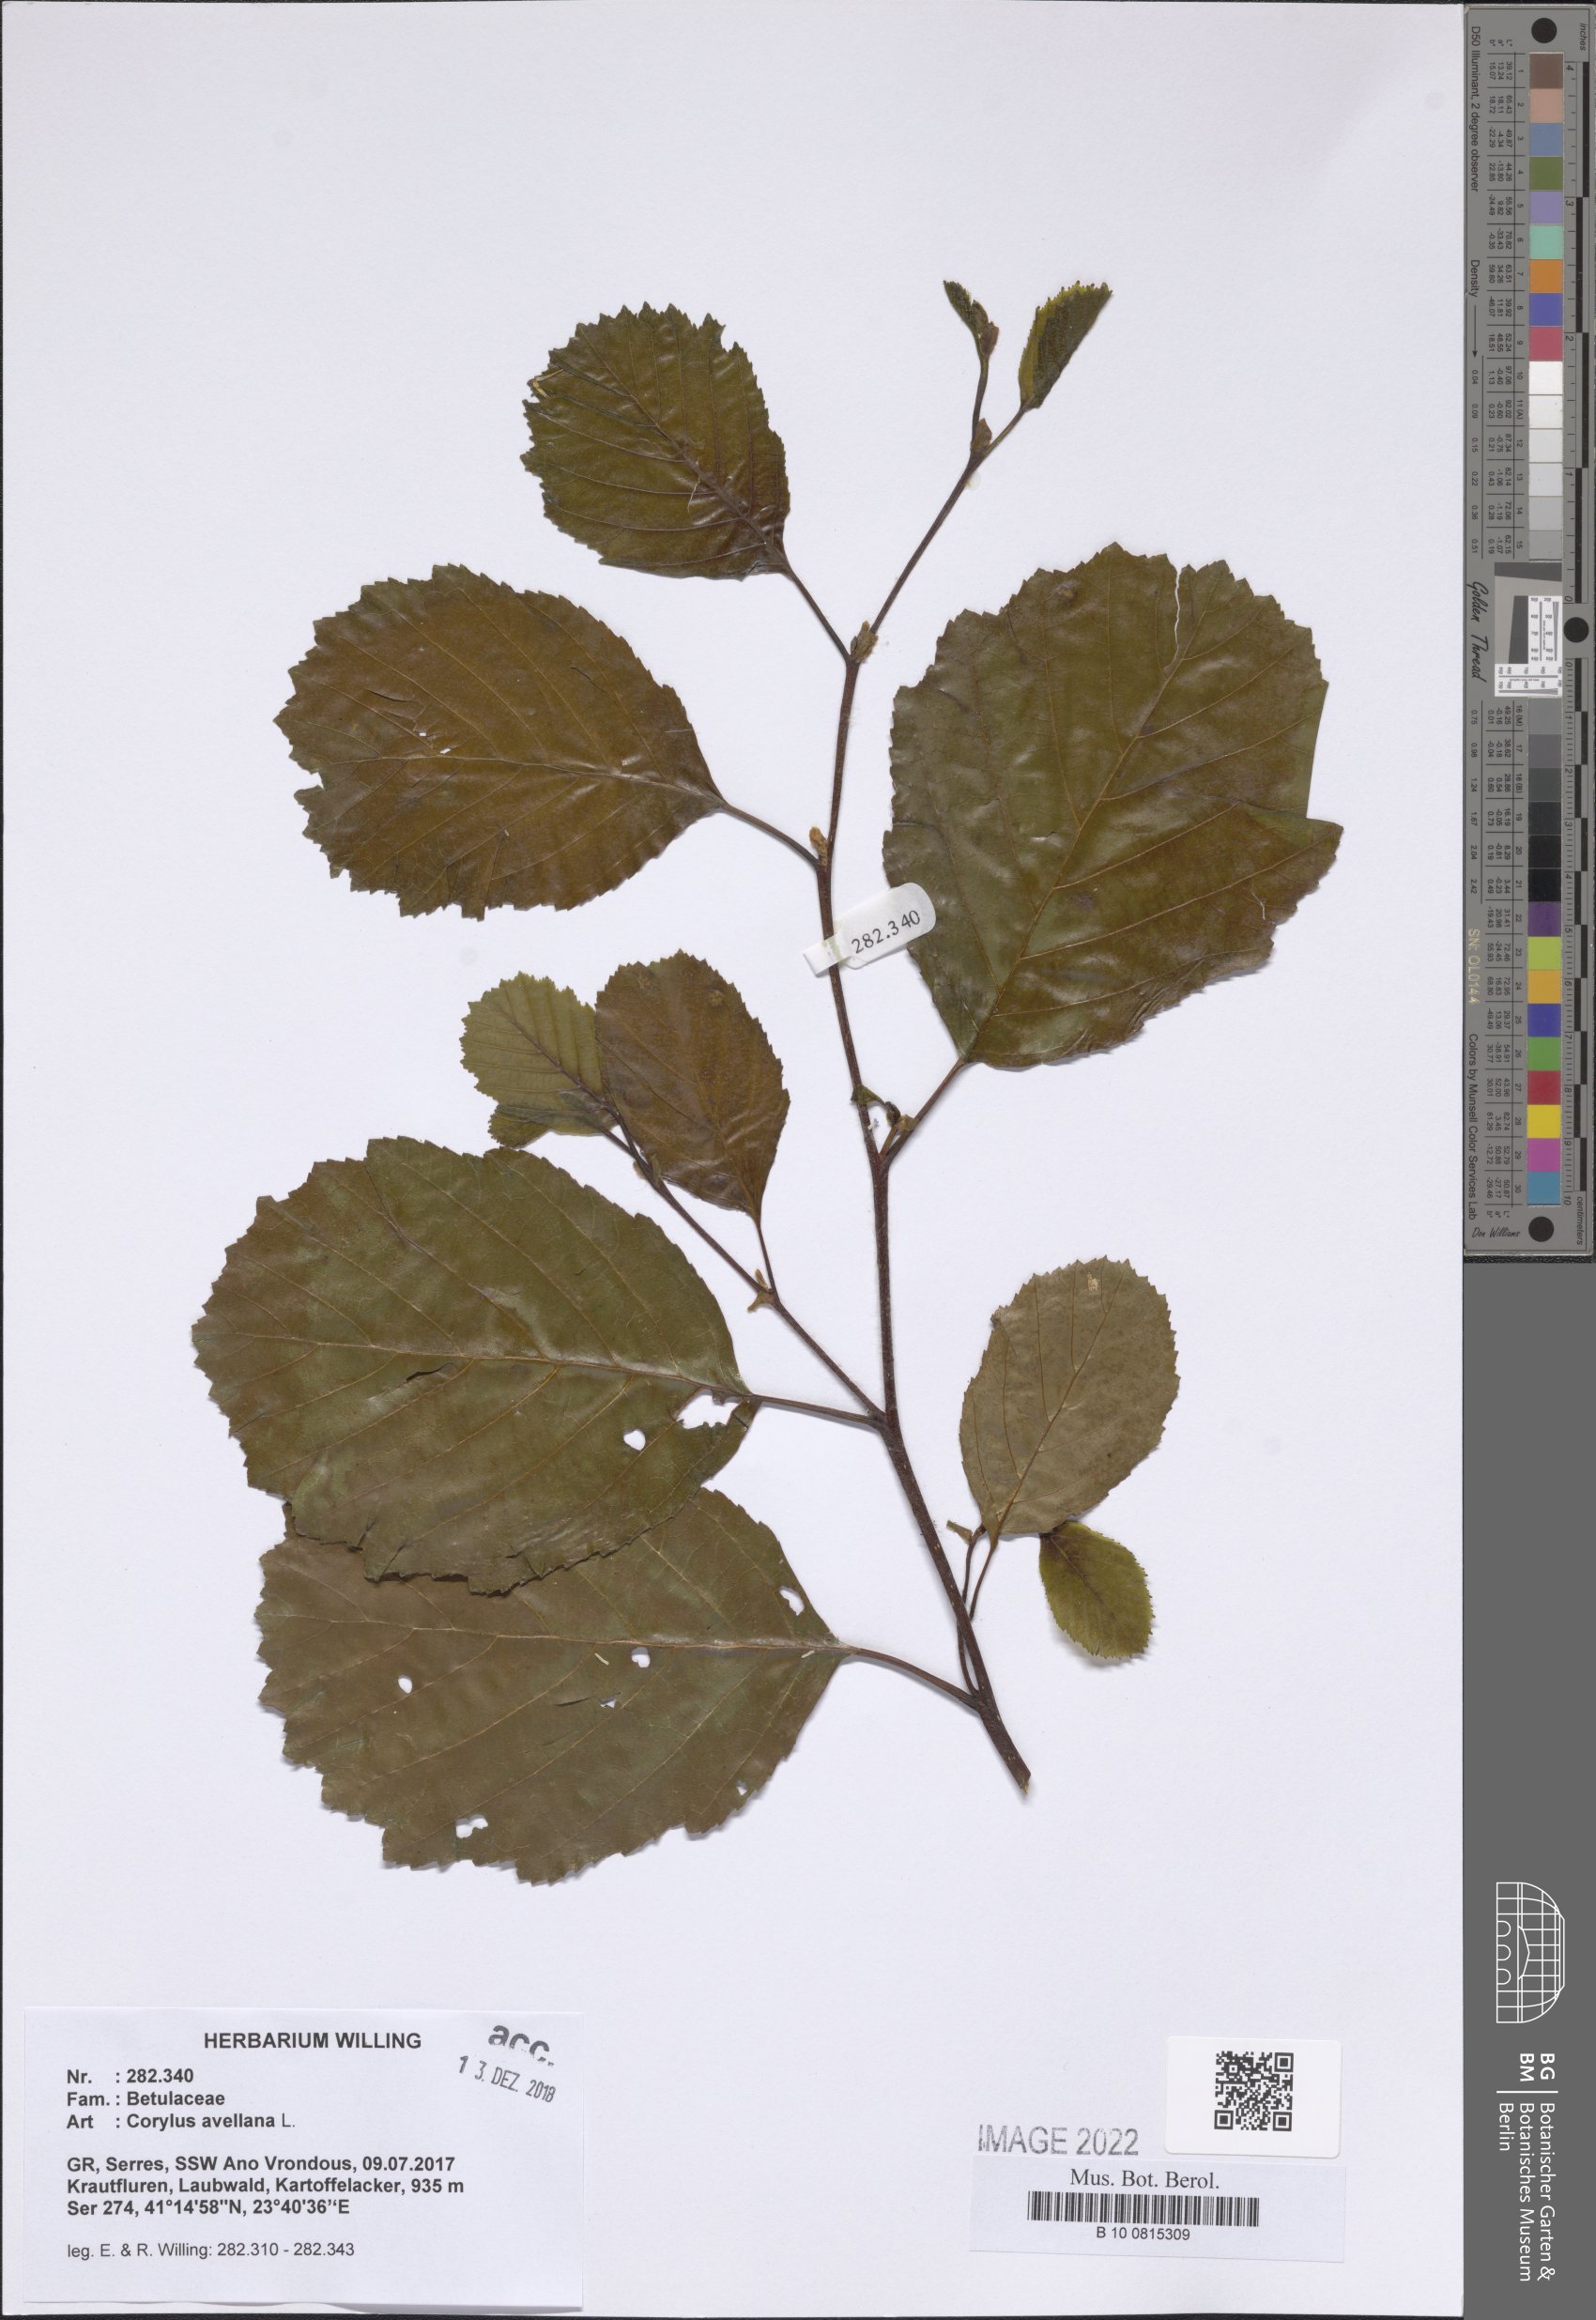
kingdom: Plantae
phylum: Tracheophyta
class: Magnoliopsida
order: Fagales
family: Betulaceae
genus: Corylus
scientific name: Corylus avellana
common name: European hazel
